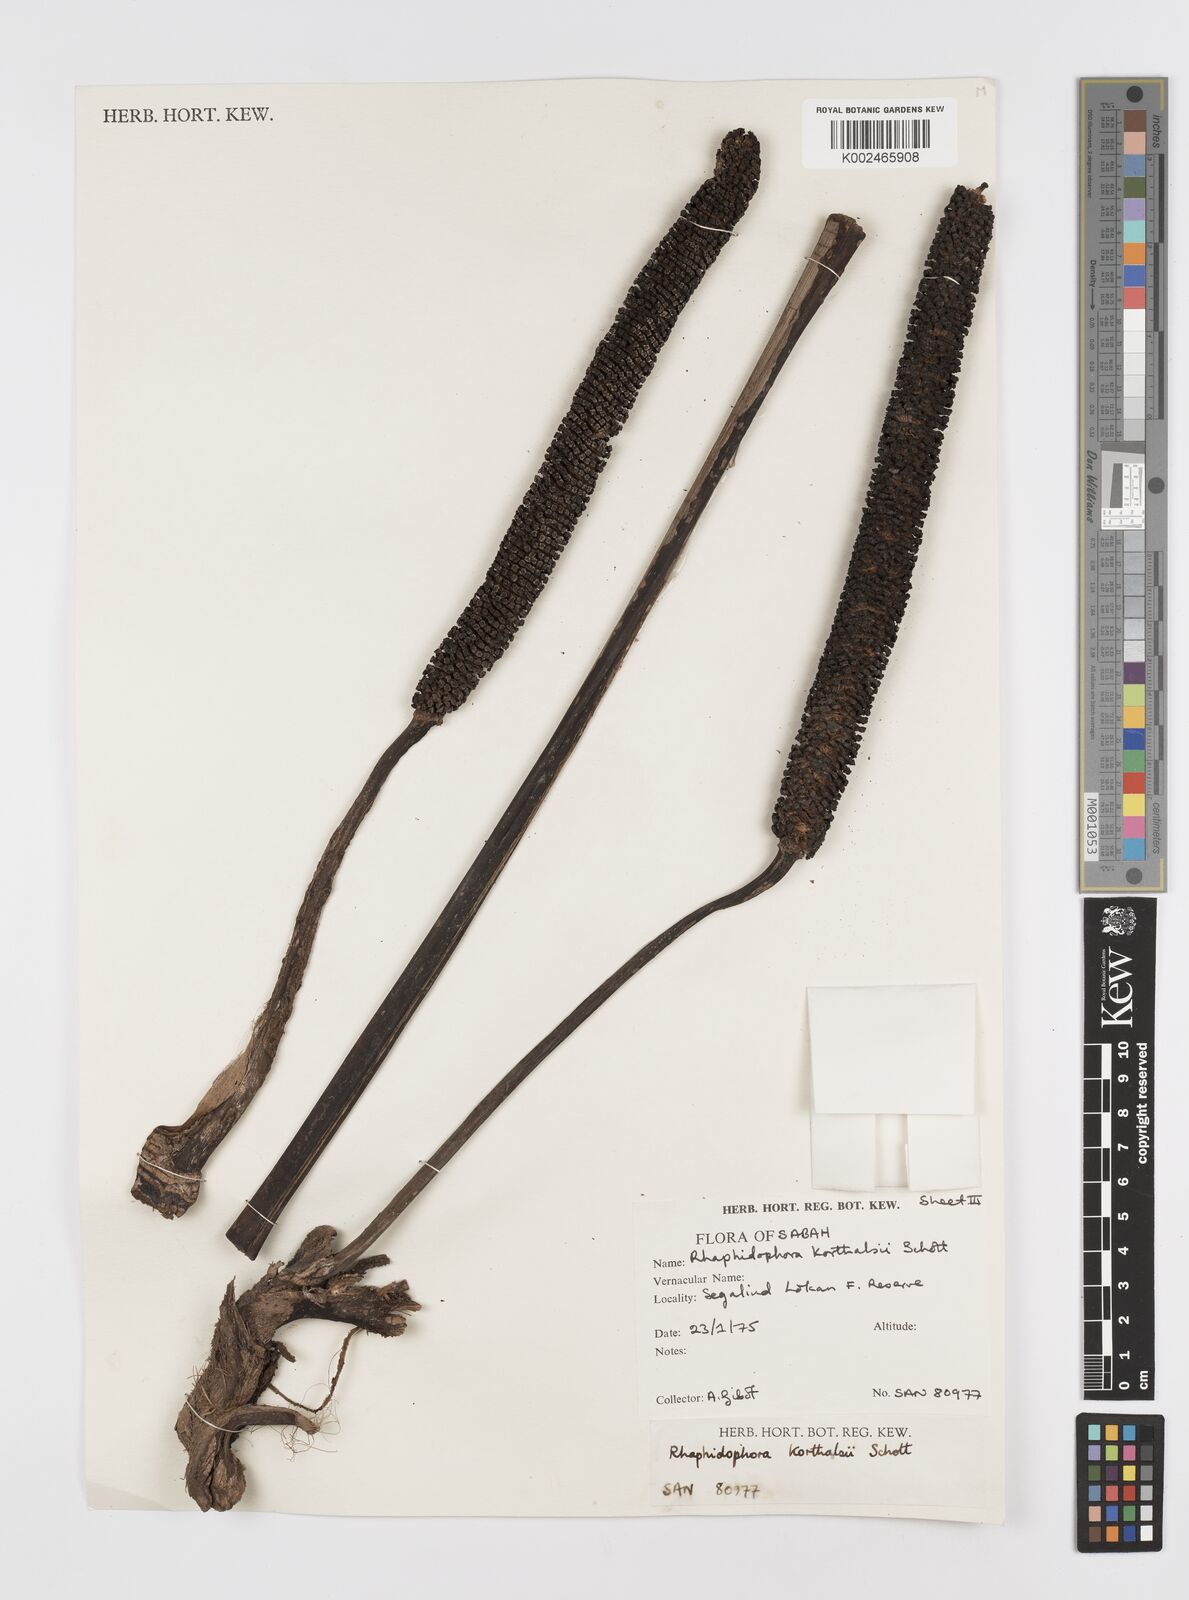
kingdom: Plantae
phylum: Tracheophyta
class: Liliopsida
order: Alismatales
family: Araceae
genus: Rhaphidophora
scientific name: Rhaphidophora korthalsii
